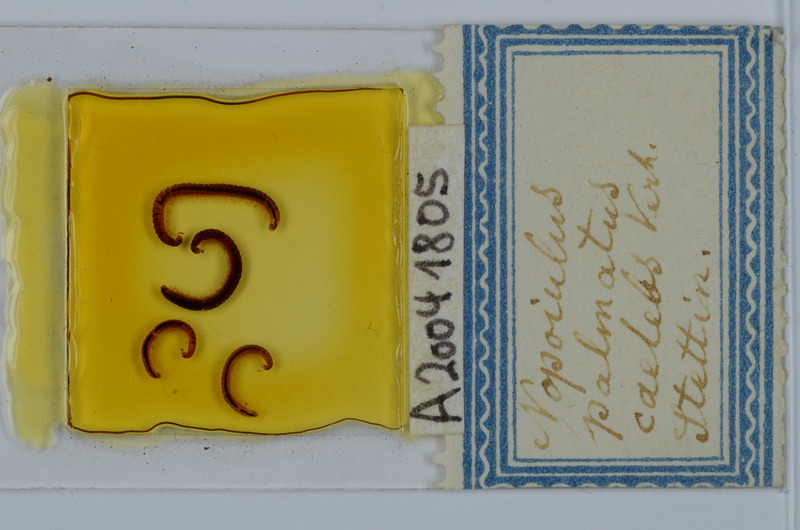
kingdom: Animalia
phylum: Arthropoda
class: Diplopoda
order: Julida
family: Blaniulidae
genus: Proteroiulus
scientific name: Proteroiulus fuscus
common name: Millipede
